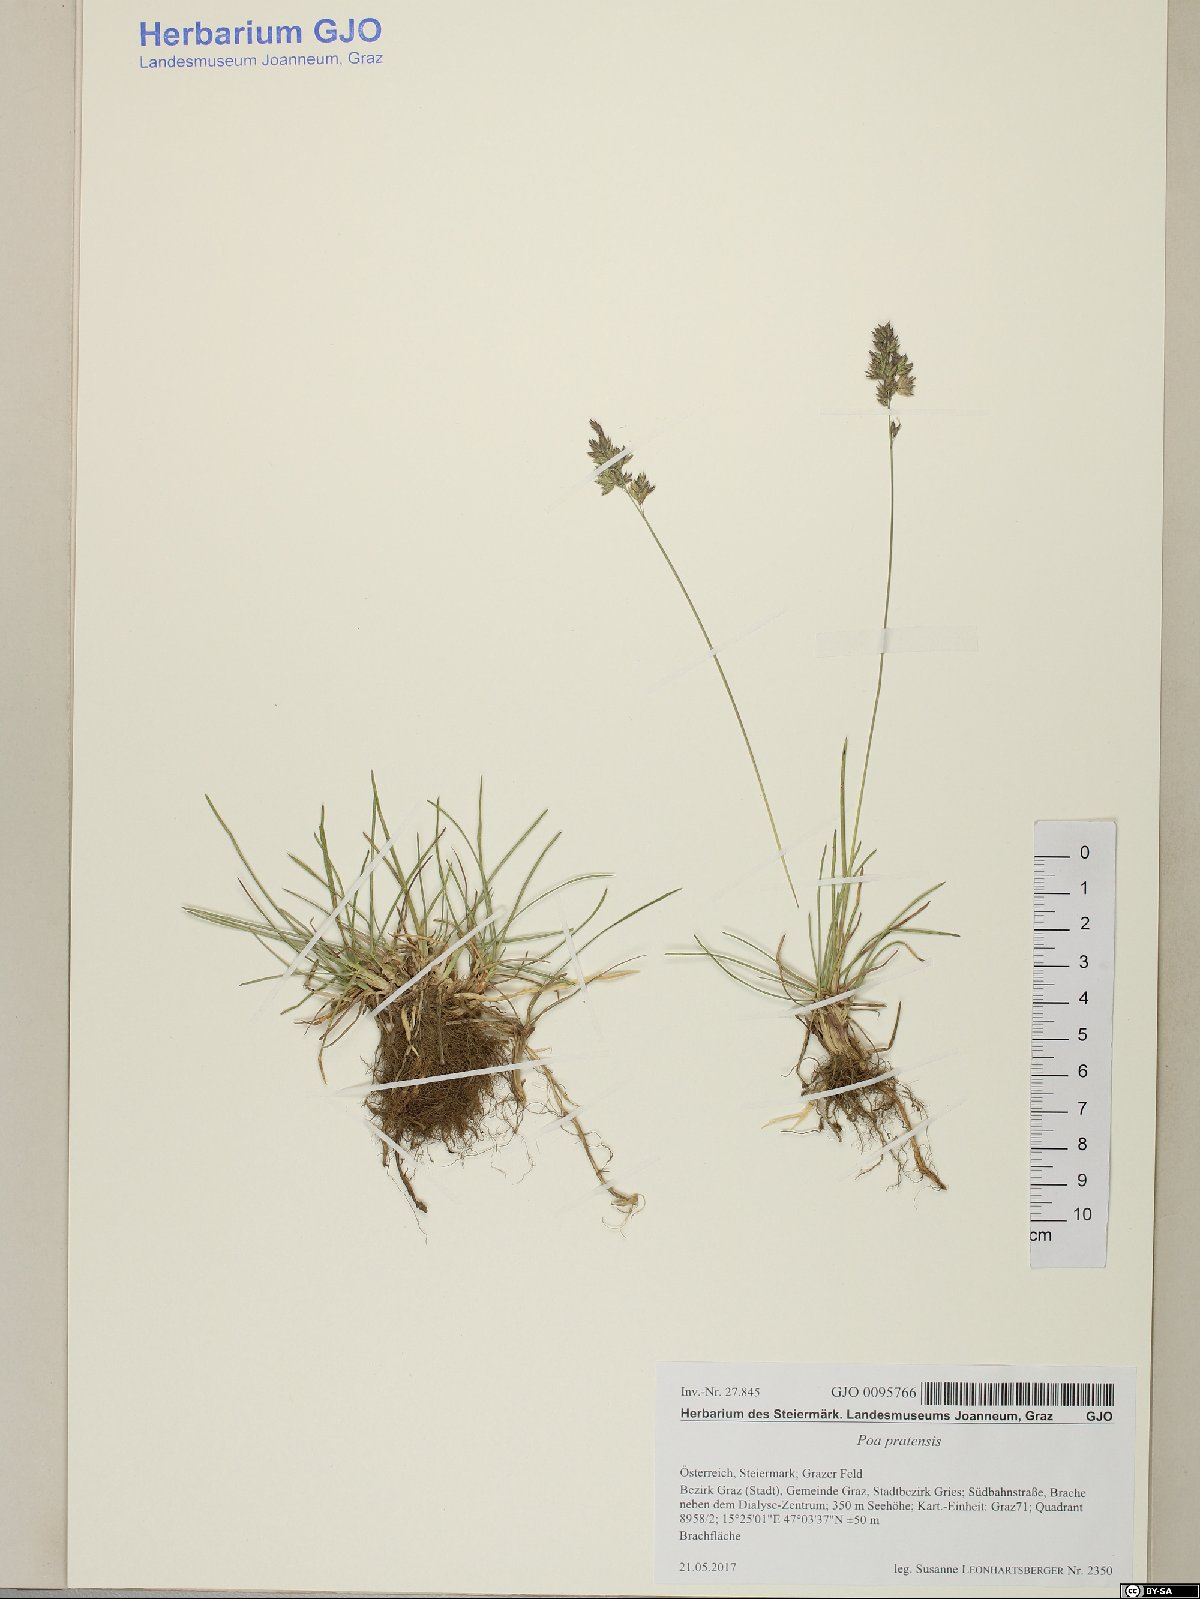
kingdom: Plantae
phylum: Tracheophyta
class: Liliopsida
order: Poales
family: Poaceae
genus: Poa
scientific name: Poa pratensis
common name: Kentucky bluegrass
